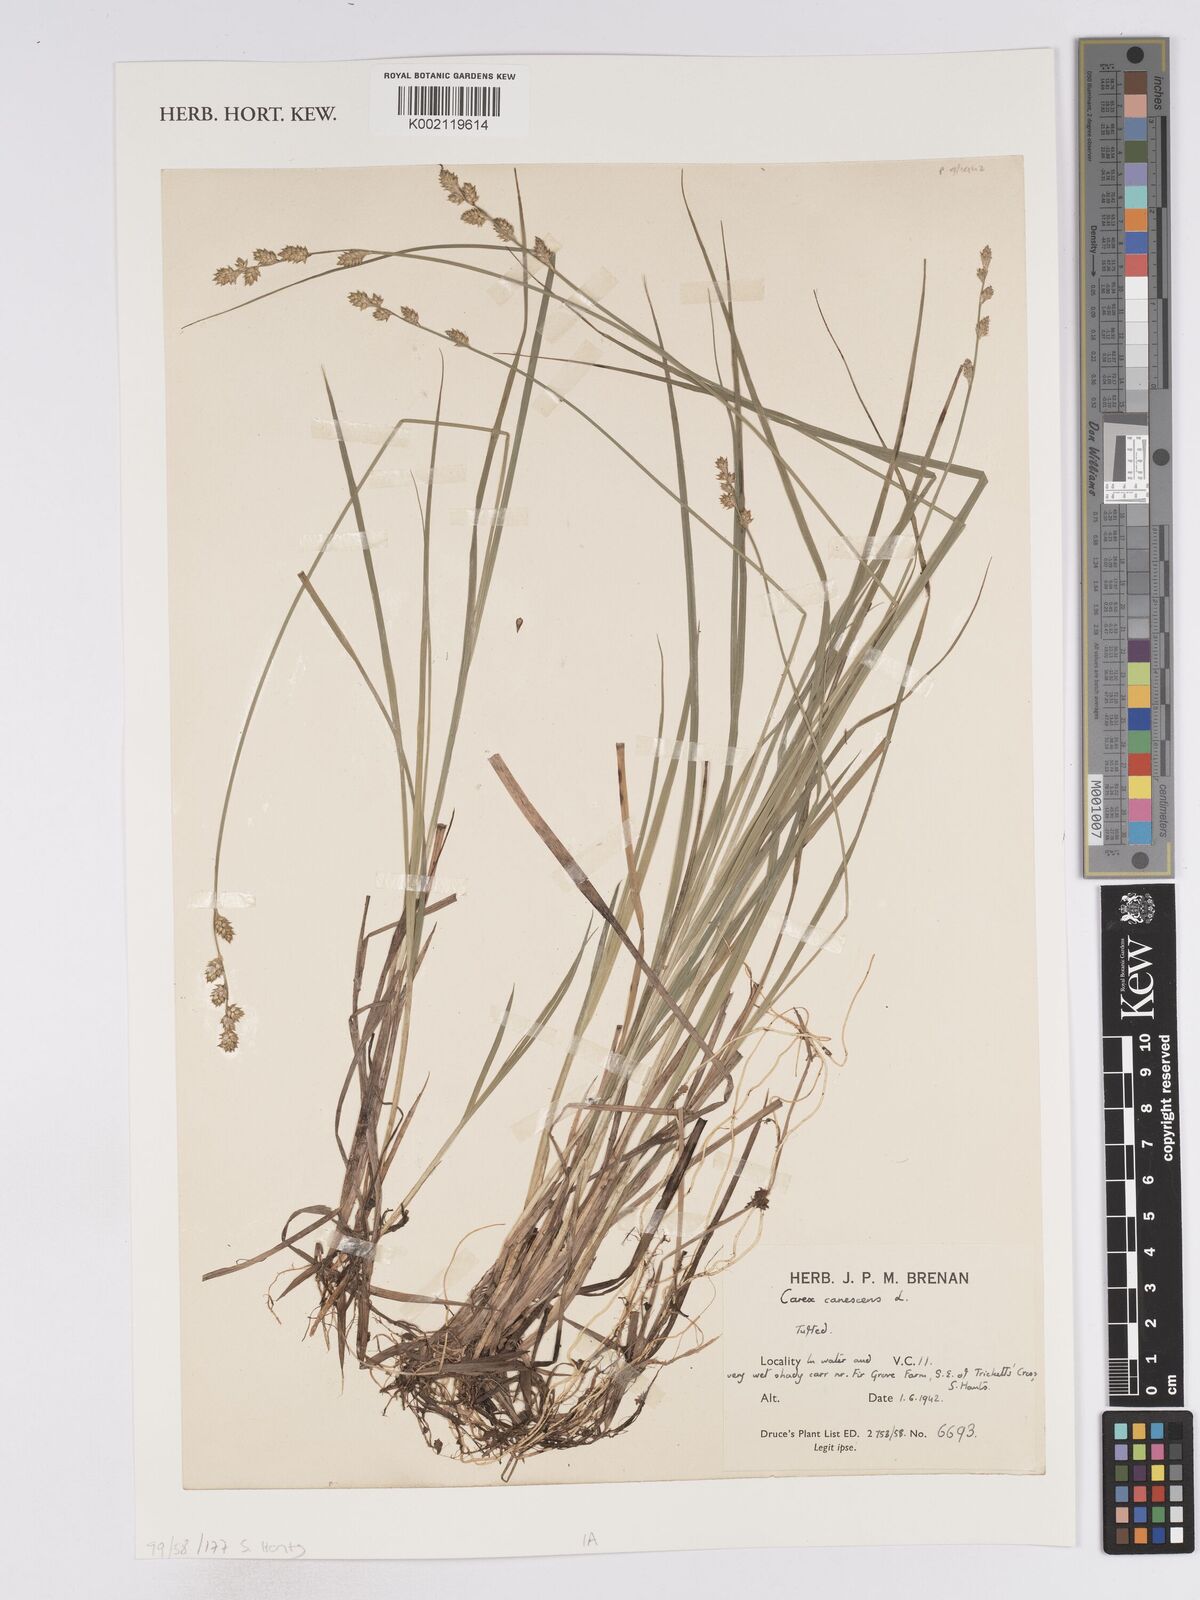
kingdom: Plantae
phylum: Tracheophyta
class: Liliopsida
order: Poales
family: Cyperaceae
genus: Carex
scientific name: Carex curta
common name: White sedge
